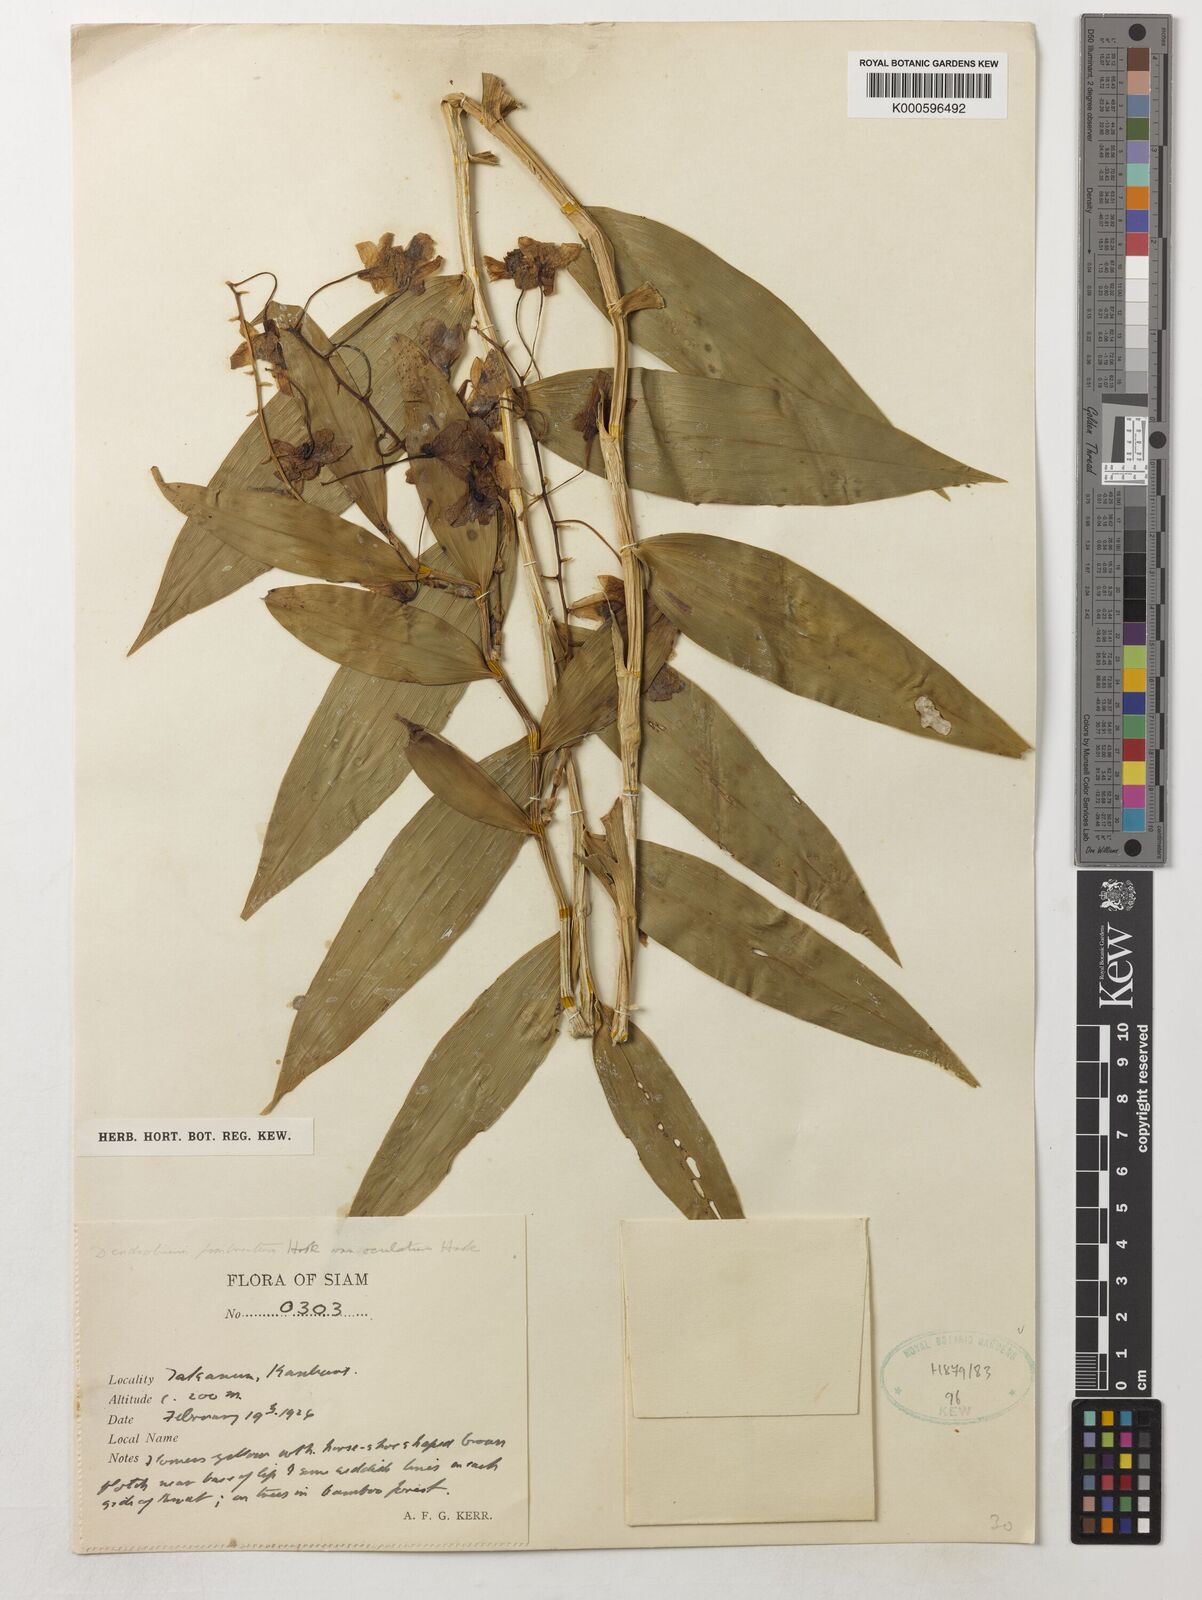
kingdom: Plantae
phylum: Tracheophyta
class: Liliopsida
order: Asparagales
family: Orchidaceae
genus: Dendrobium
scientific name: Dendrobium fimbriatum
